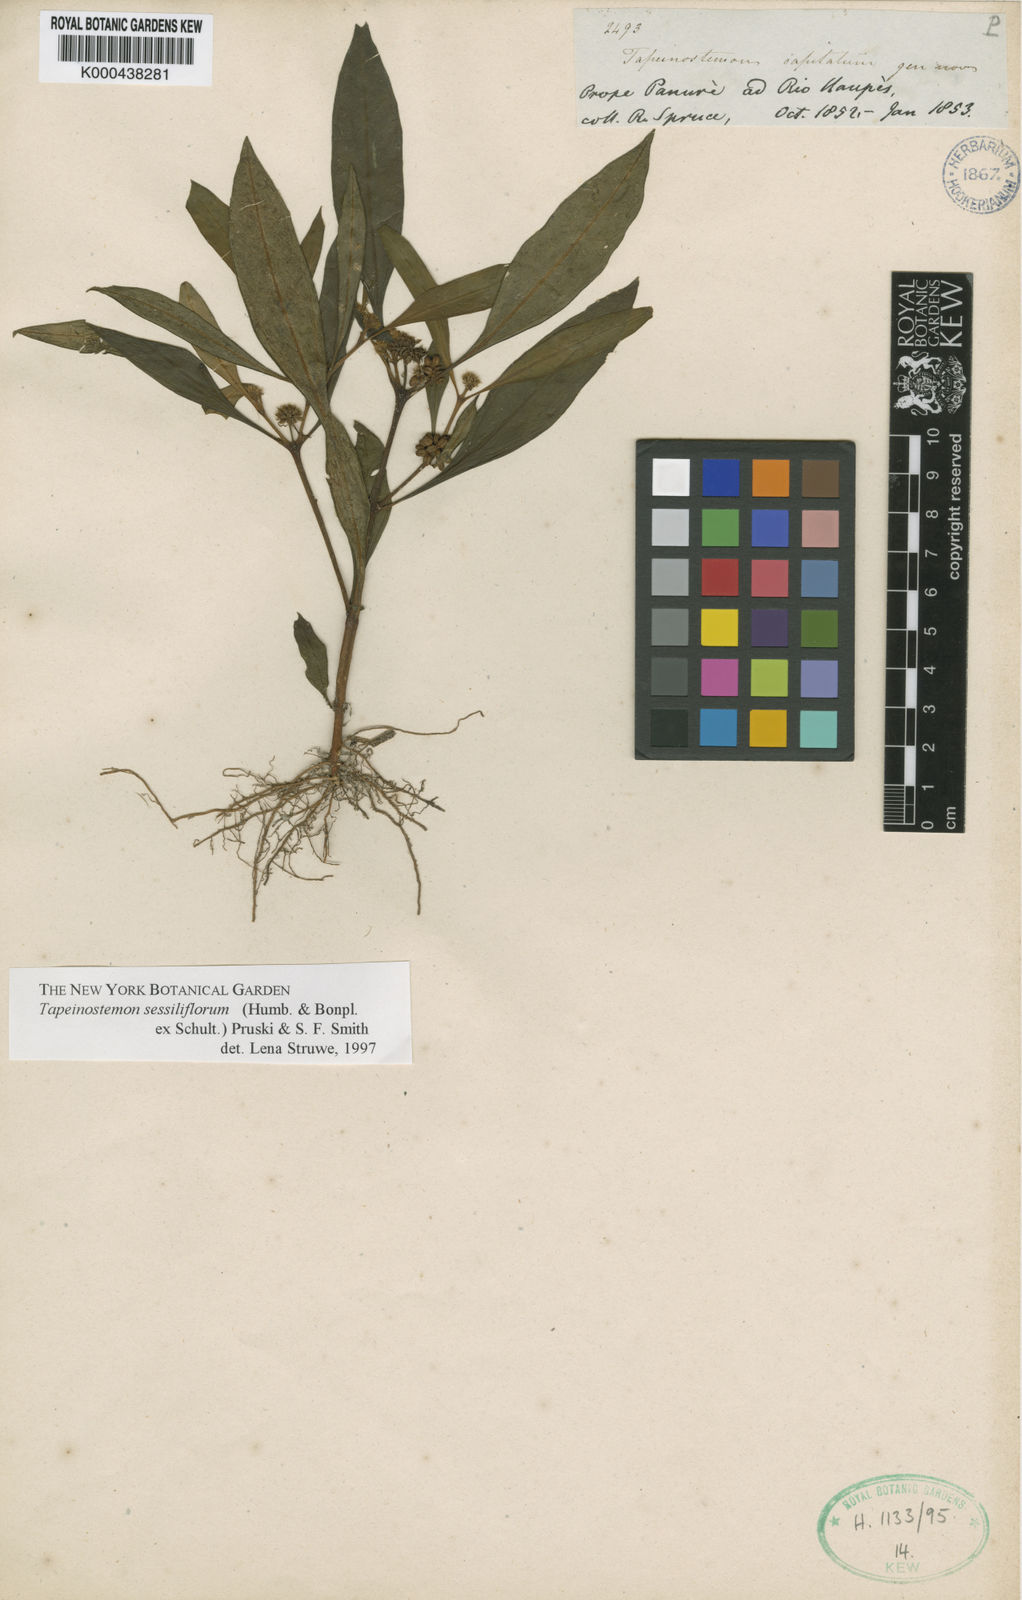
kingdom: Plantae
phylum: Tracheophyta
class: Magnoliopsida
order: Gentianales
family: Gentianaceae
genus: Tapeinostemon
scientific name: Tapeinostemon sessiliflorus
